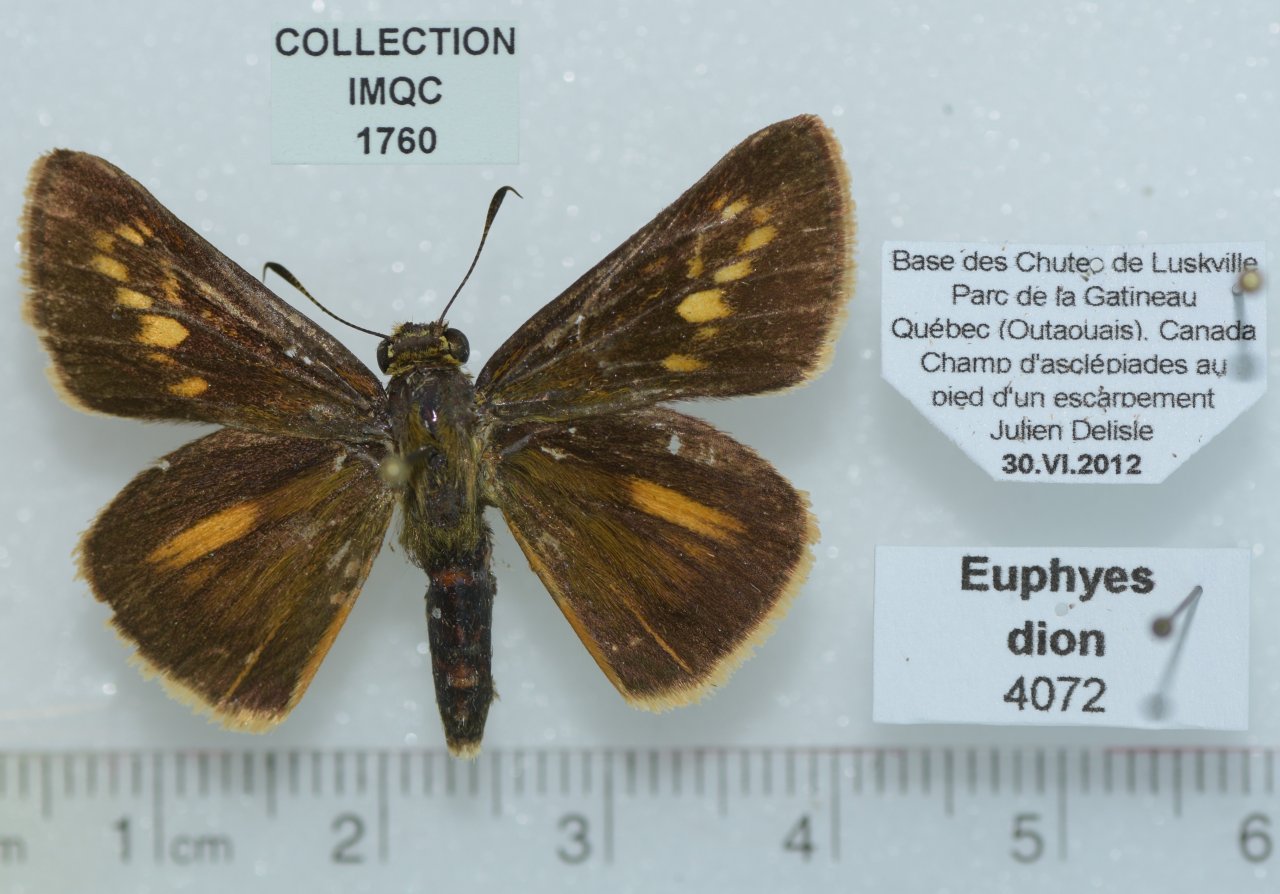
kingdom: Animalia
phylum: Arthropoda
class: Insecta
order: Lepidoptera
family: Hesperiidae
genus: Euphyes
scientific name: Euphyes dion
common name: Dion Skipper
